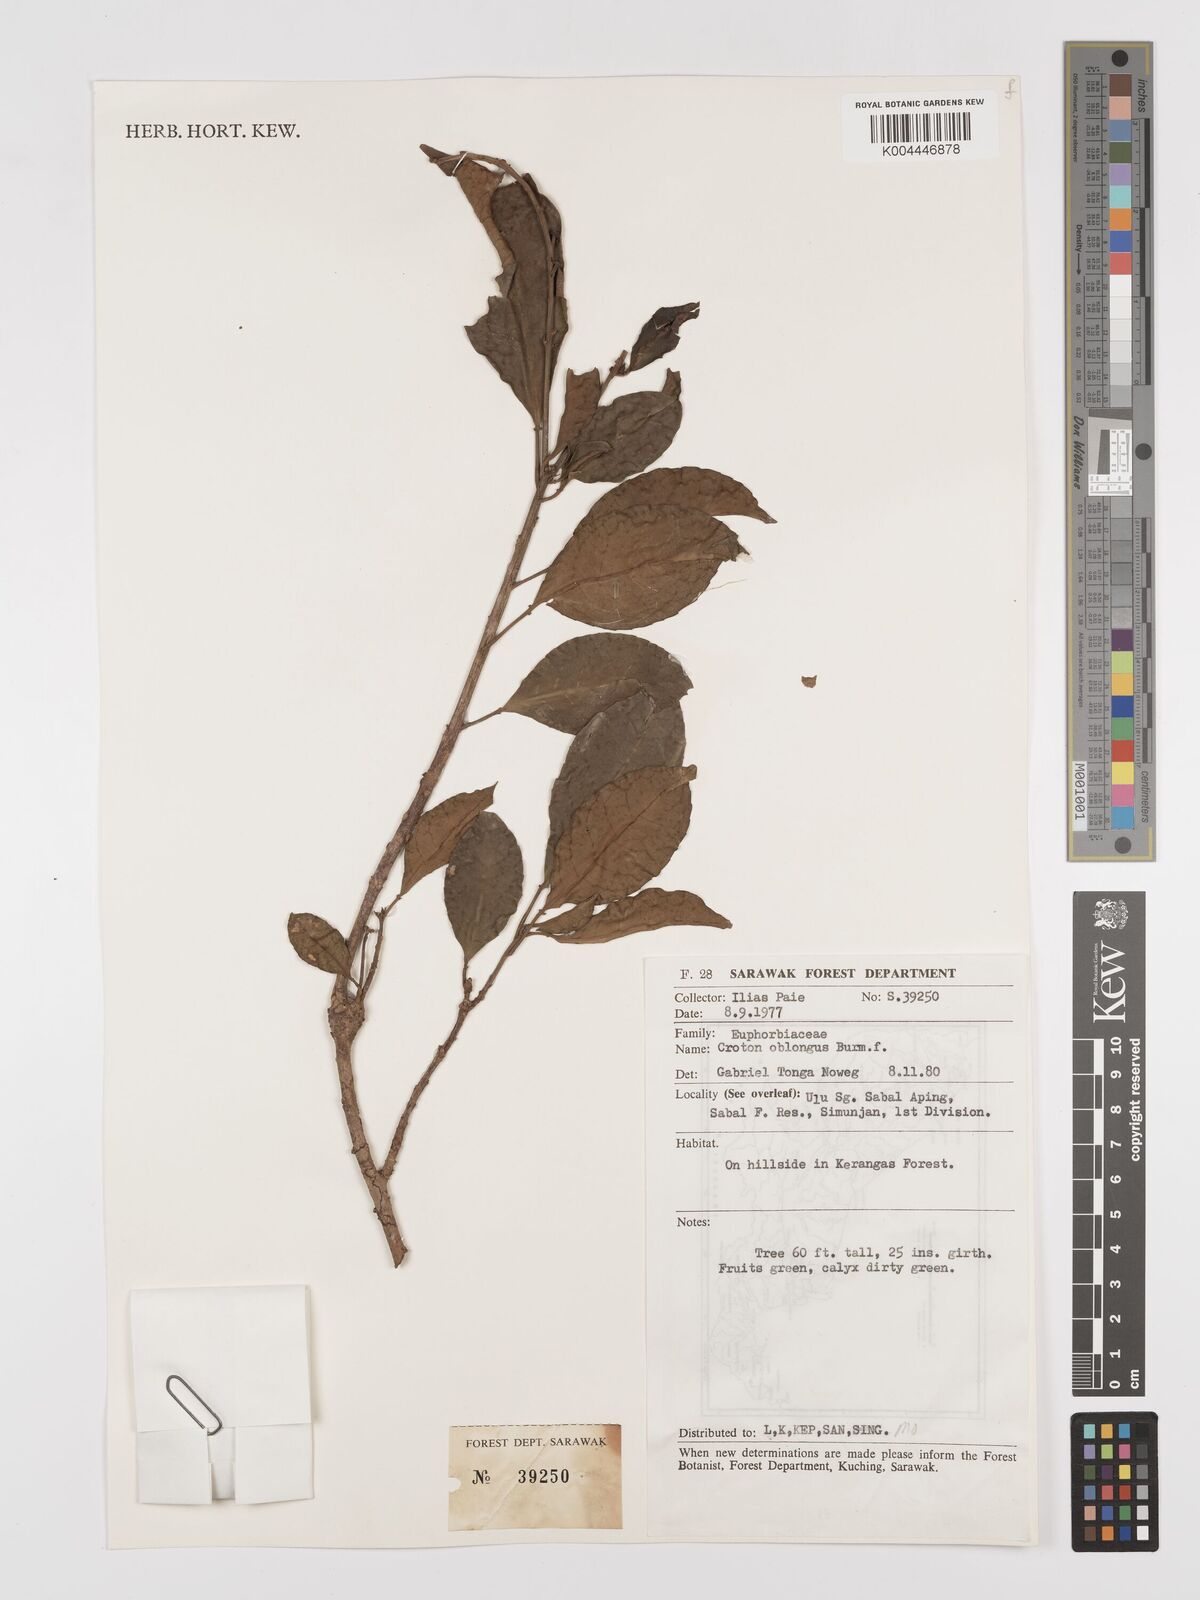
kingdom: Plantae
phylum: Tracheophyta
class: Magnoliopsida
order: Malpighiales
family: Euphorbiaceae
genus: Croton
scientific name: Croton oblongus
